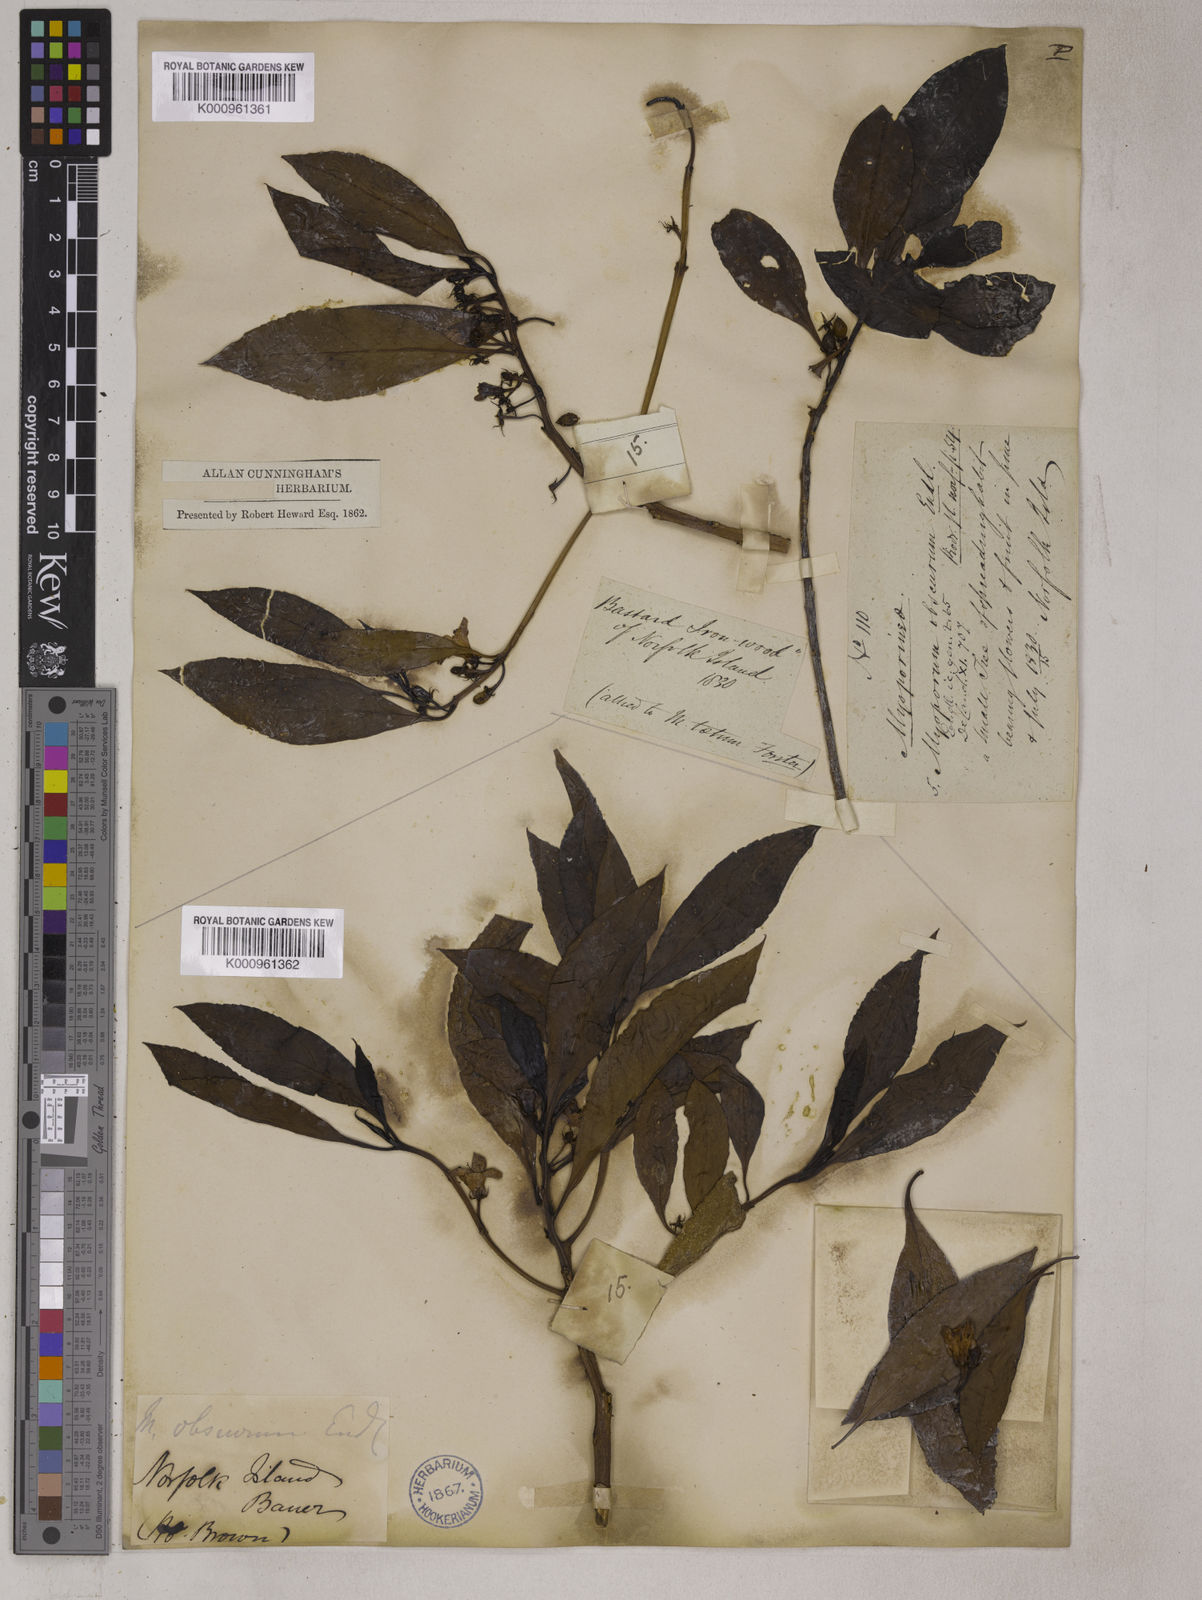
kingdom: Plantae
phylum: Tracheophyta
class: Magnoliopsida
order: Lamiales
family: Scrophulariaceae
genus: Myoporum
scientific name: Myoporum obscurum
